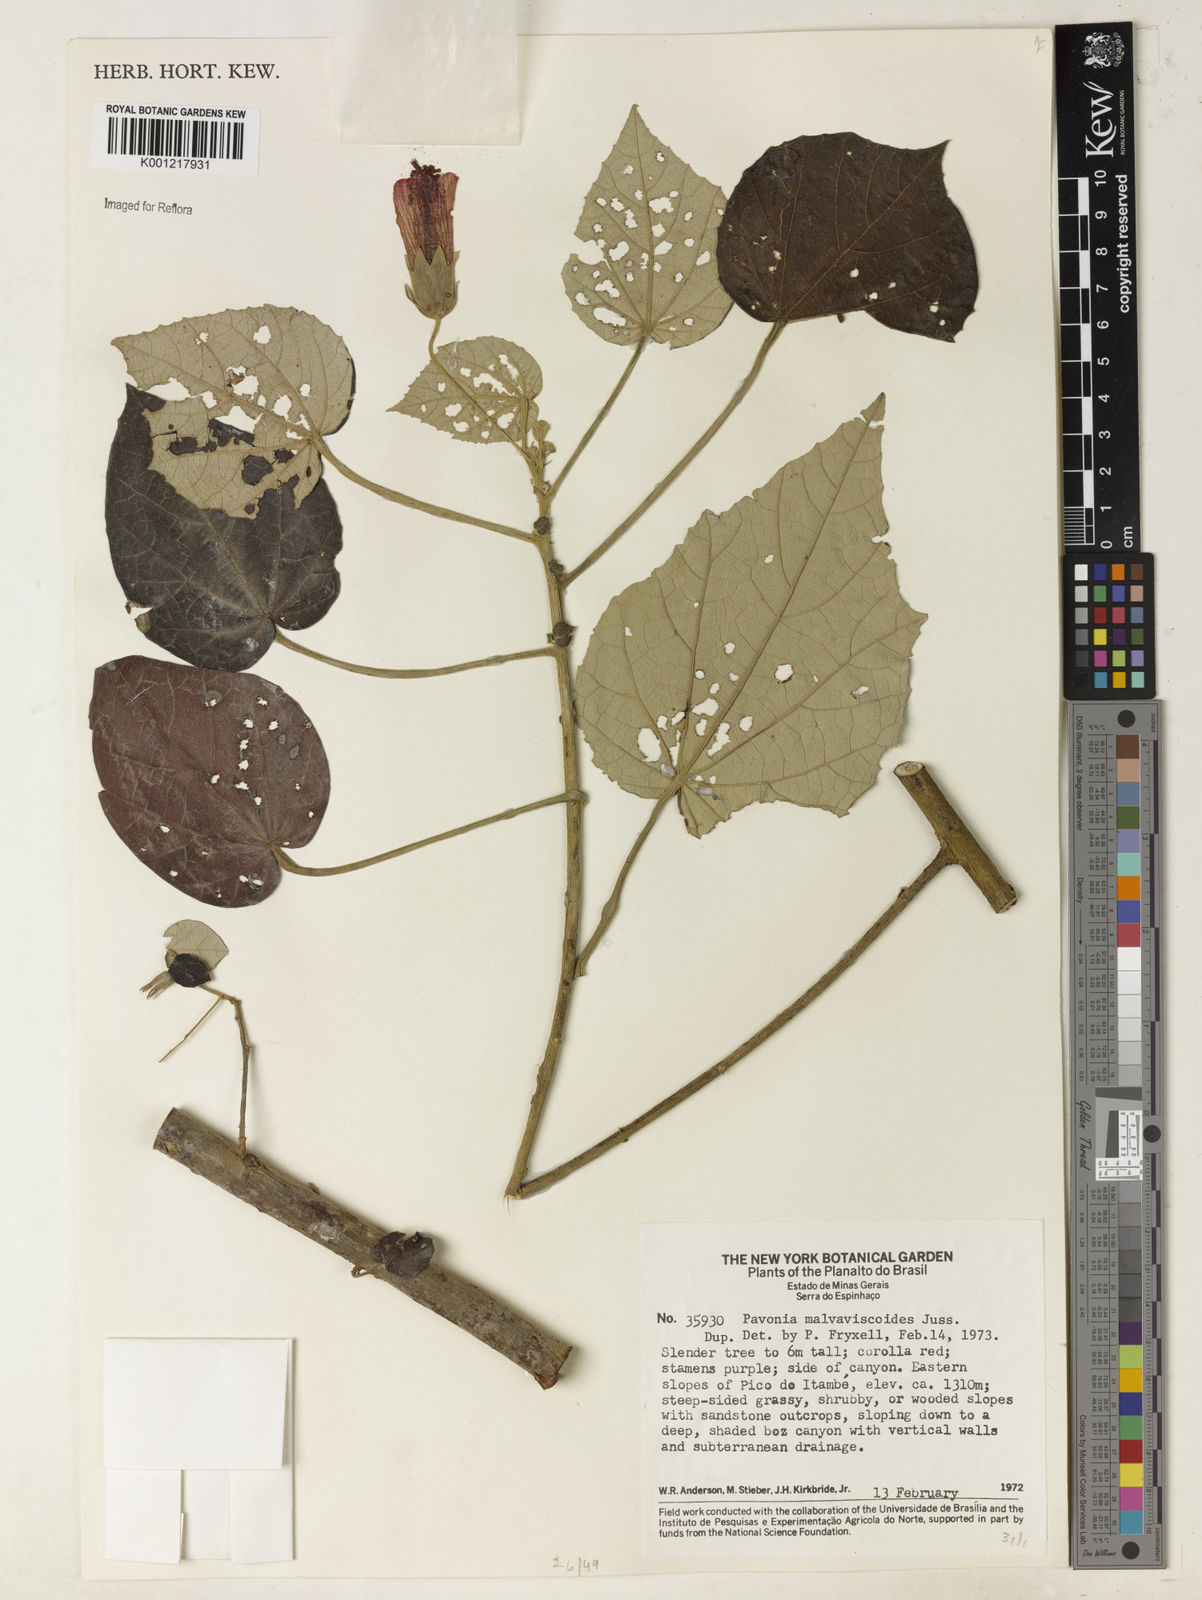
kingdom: Plantae
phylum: Tracheophyta
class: Magnoliopsida
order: Malvales
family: Malvaceae
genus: Pavonia
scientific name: Pavonia malvaviscoides
